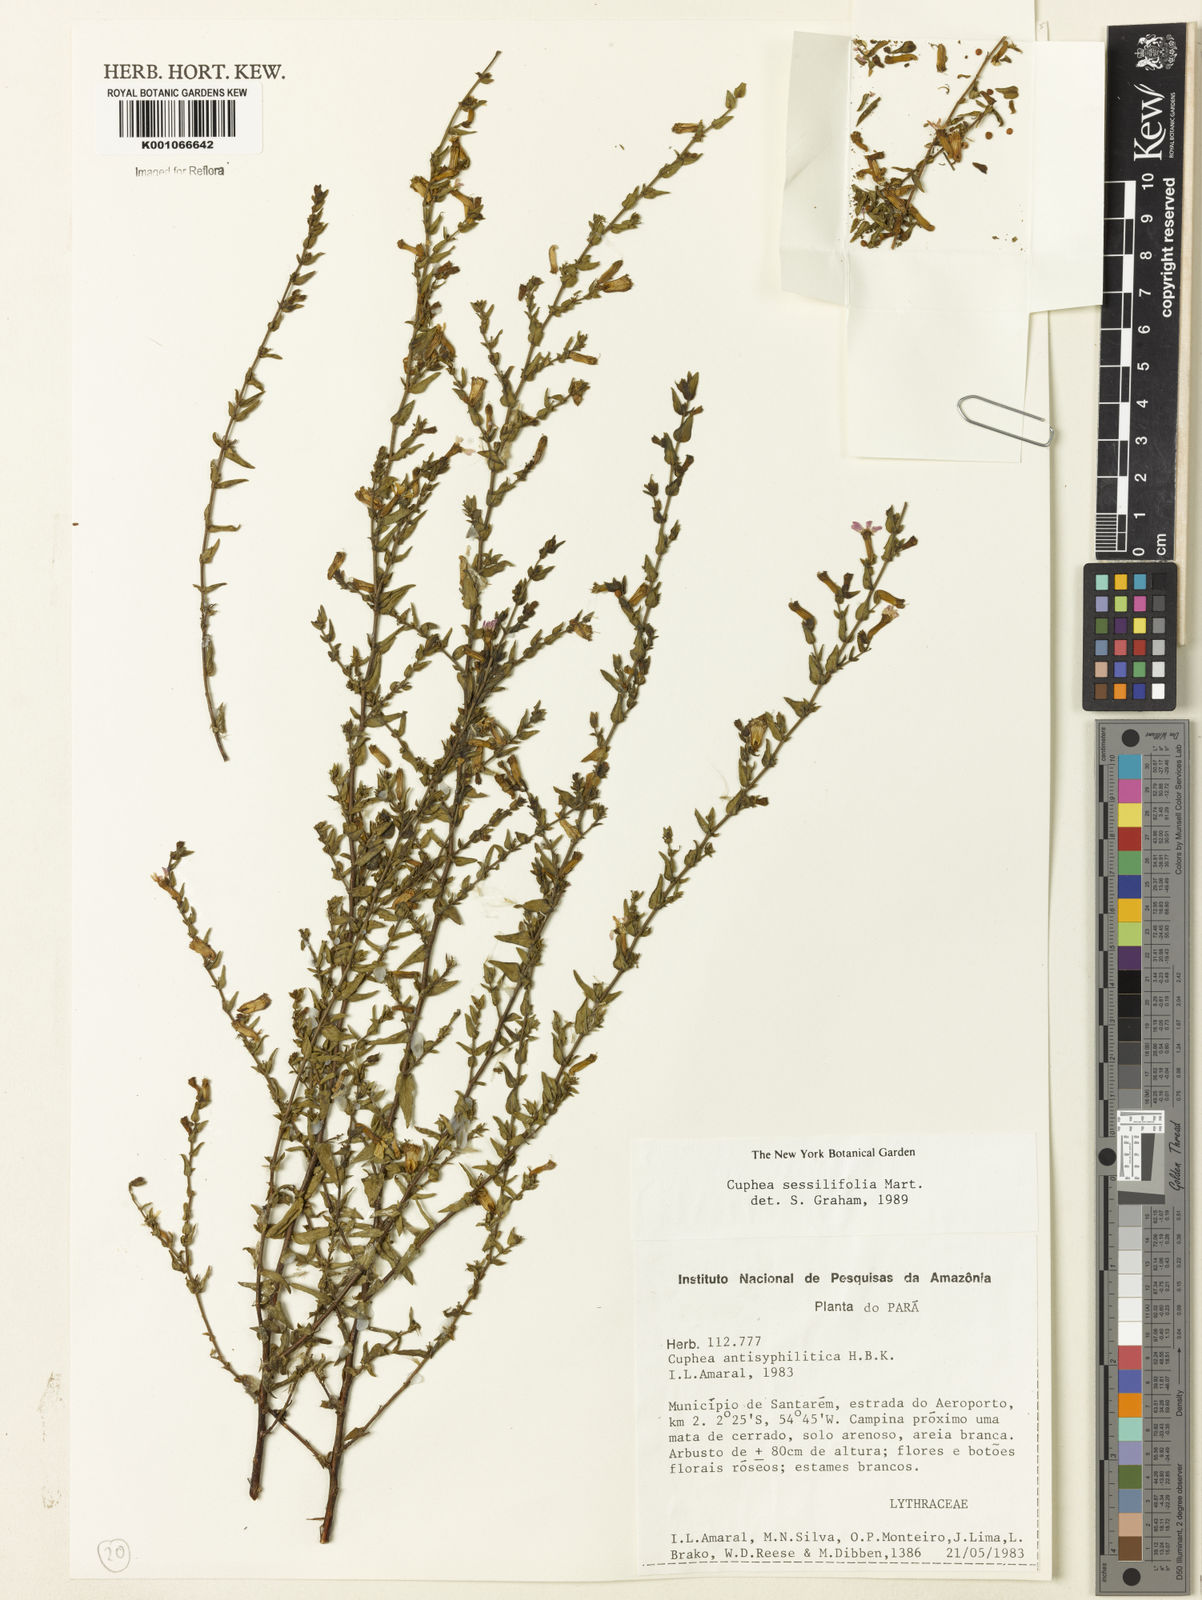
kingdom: Plantae
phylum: Tracheophyta
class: Magnoliopsida
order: Myrtales
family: Lythraceae
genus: Cuphea
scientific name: Cuphea sessilifolia
